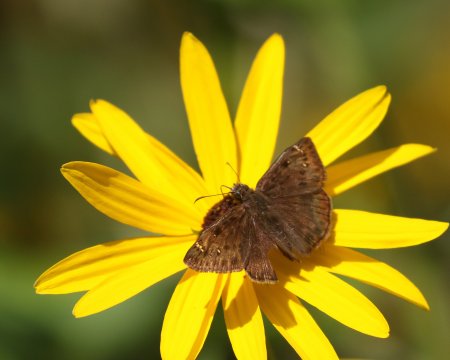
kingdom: Animalia
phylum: Arthropoda
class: Insecta
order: Lepidoptera
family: Hesperiidae
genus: Gesta
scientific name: Gesta
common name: Horace's Duskywing
